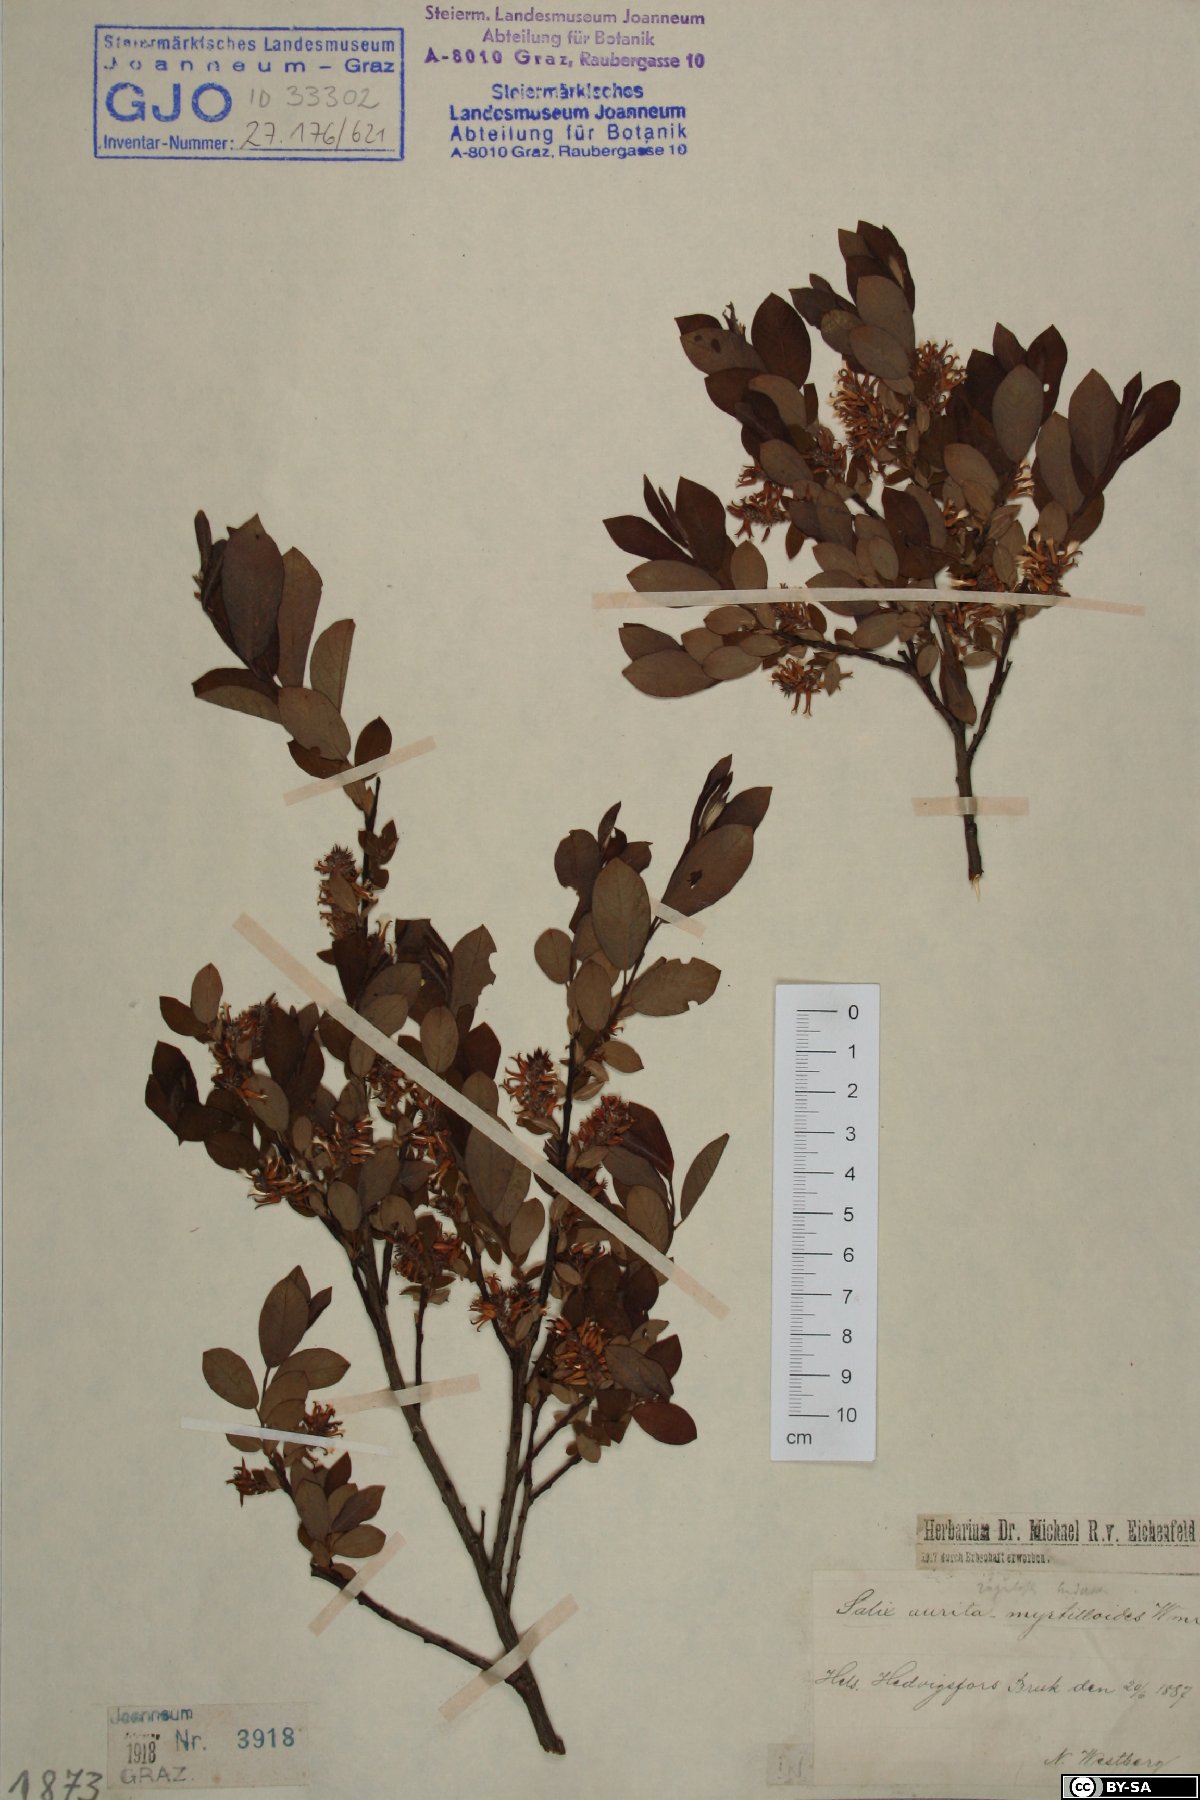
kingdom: Plantae
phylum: Tracheophyta
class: Magnoliopsida
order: Malpighiales
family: Salicaceae
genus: Salix
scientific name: Salix aurita
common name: Eared willow
